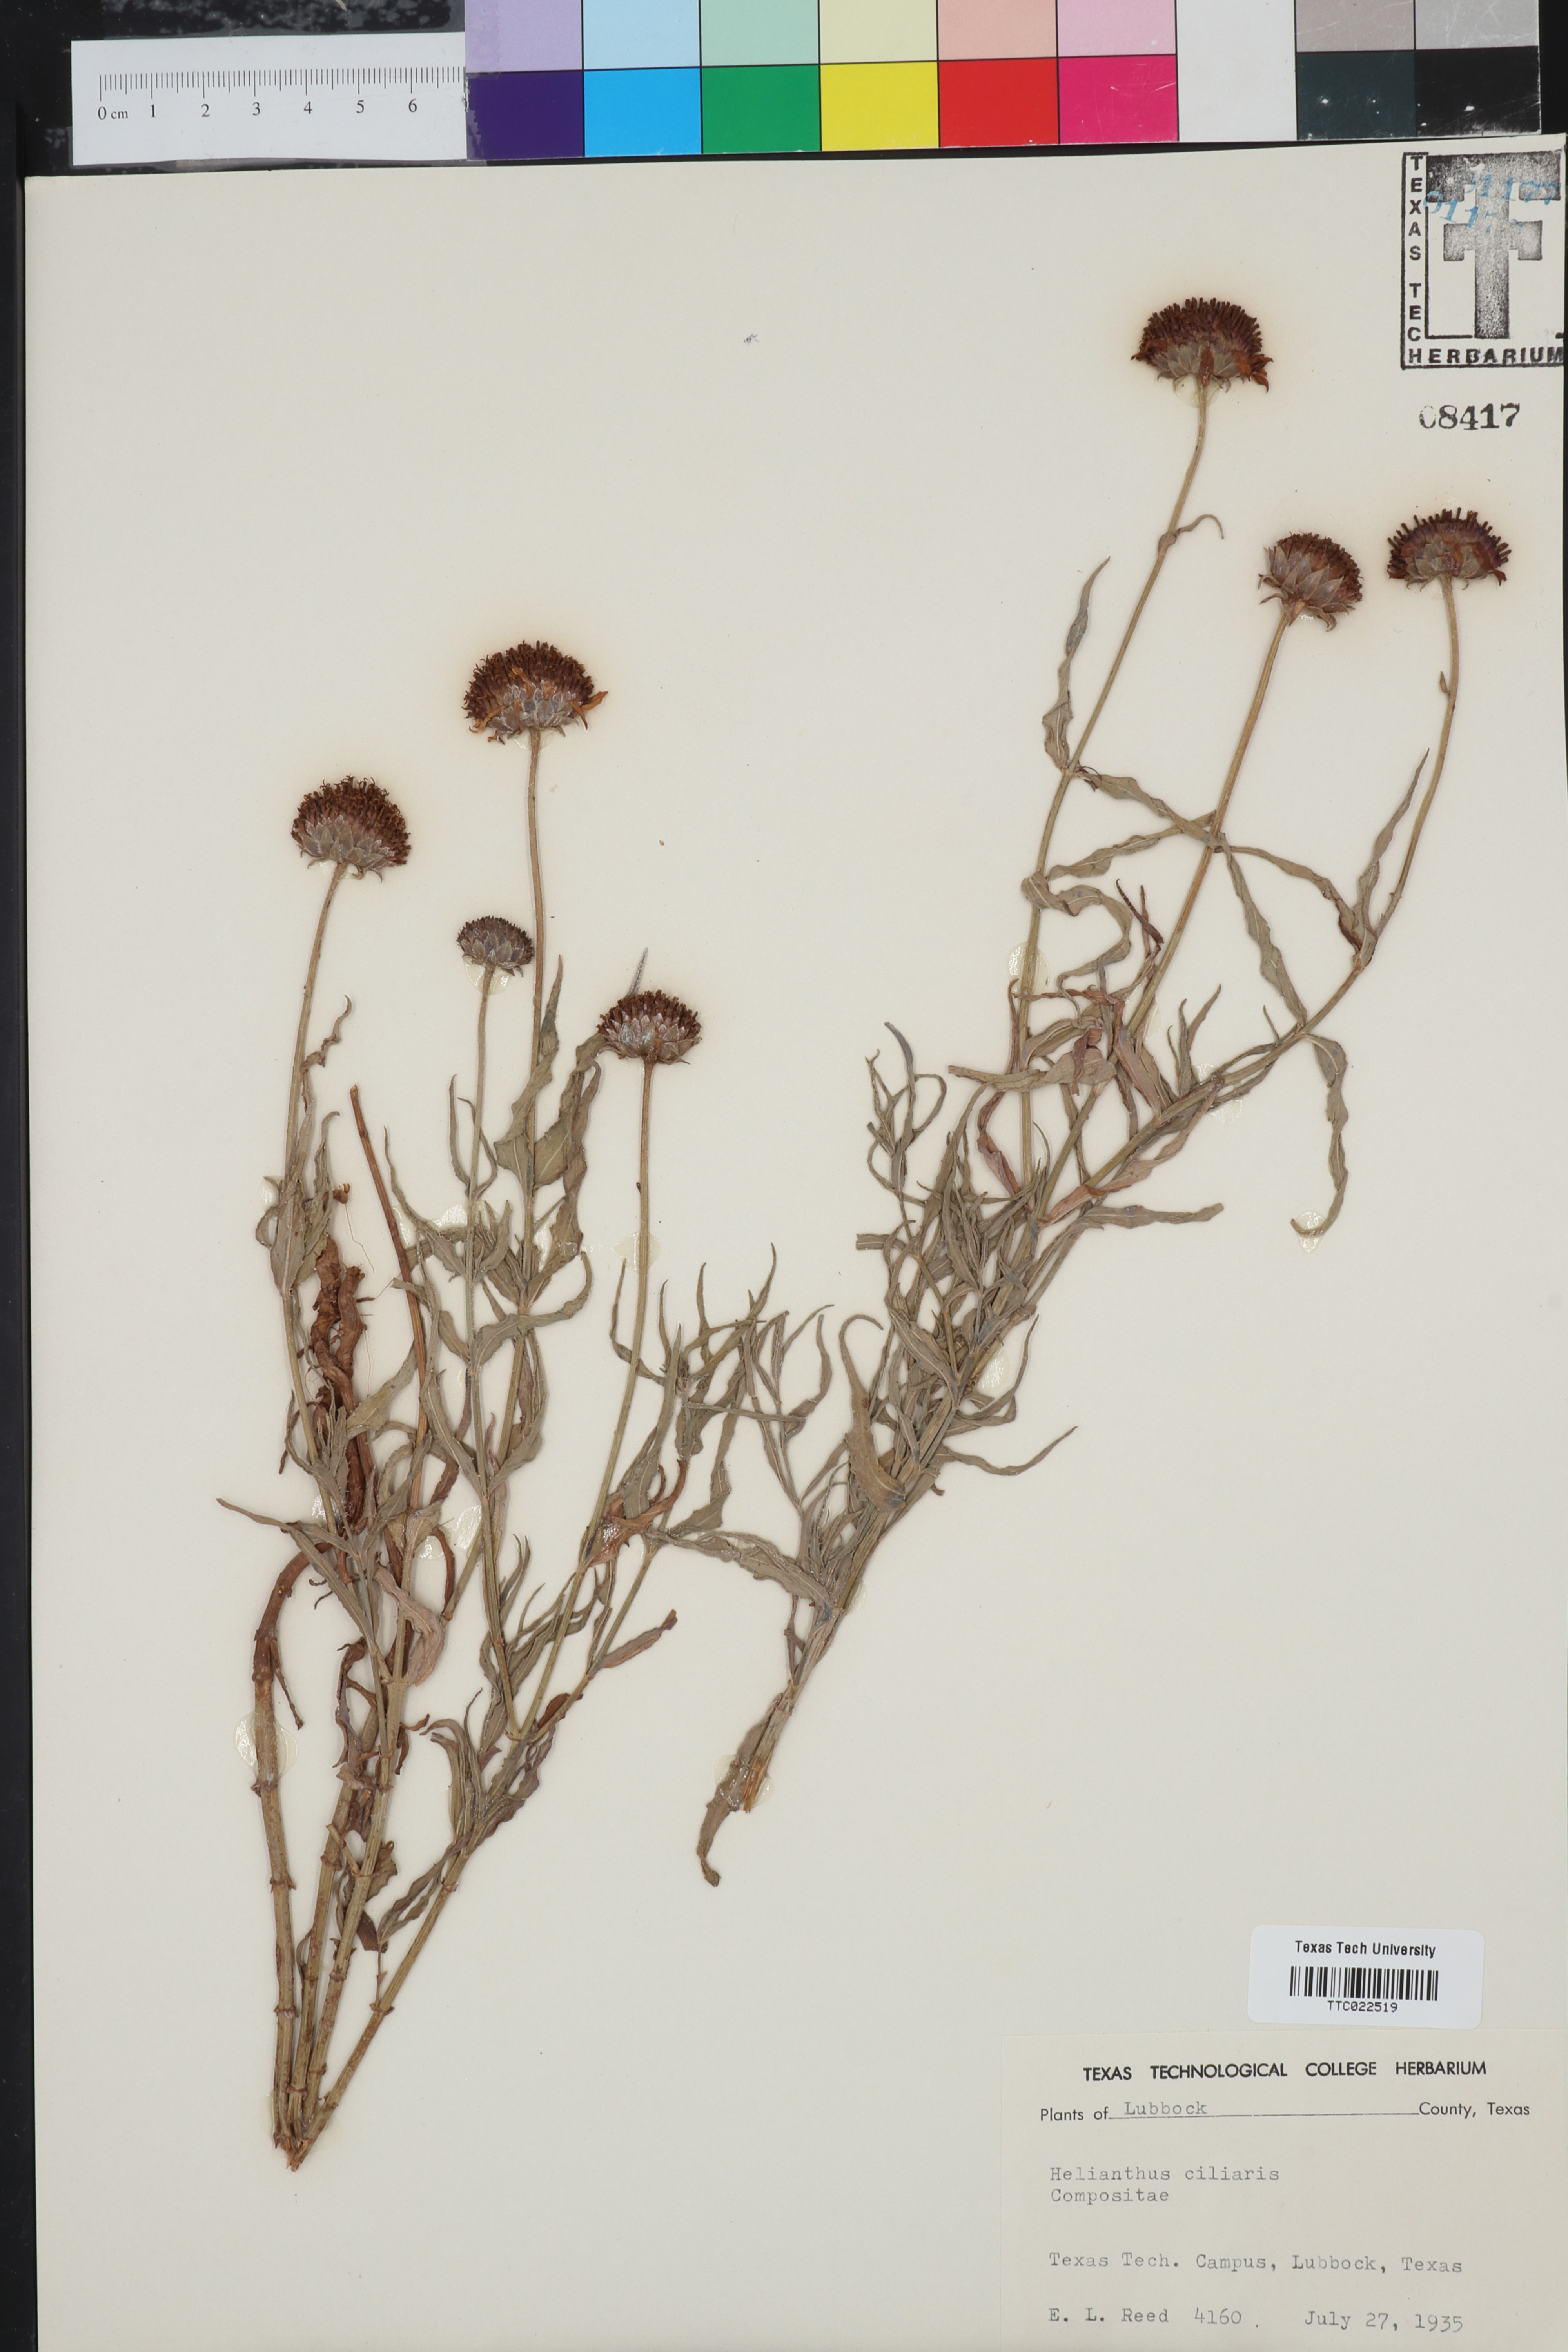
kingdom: Plantae
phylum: Tracheophyta
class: Magnoliopsida
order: Asterales
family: Asteraceae
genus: Helianthus
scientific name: Helianthus ciliaris
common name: Texas blueweed
